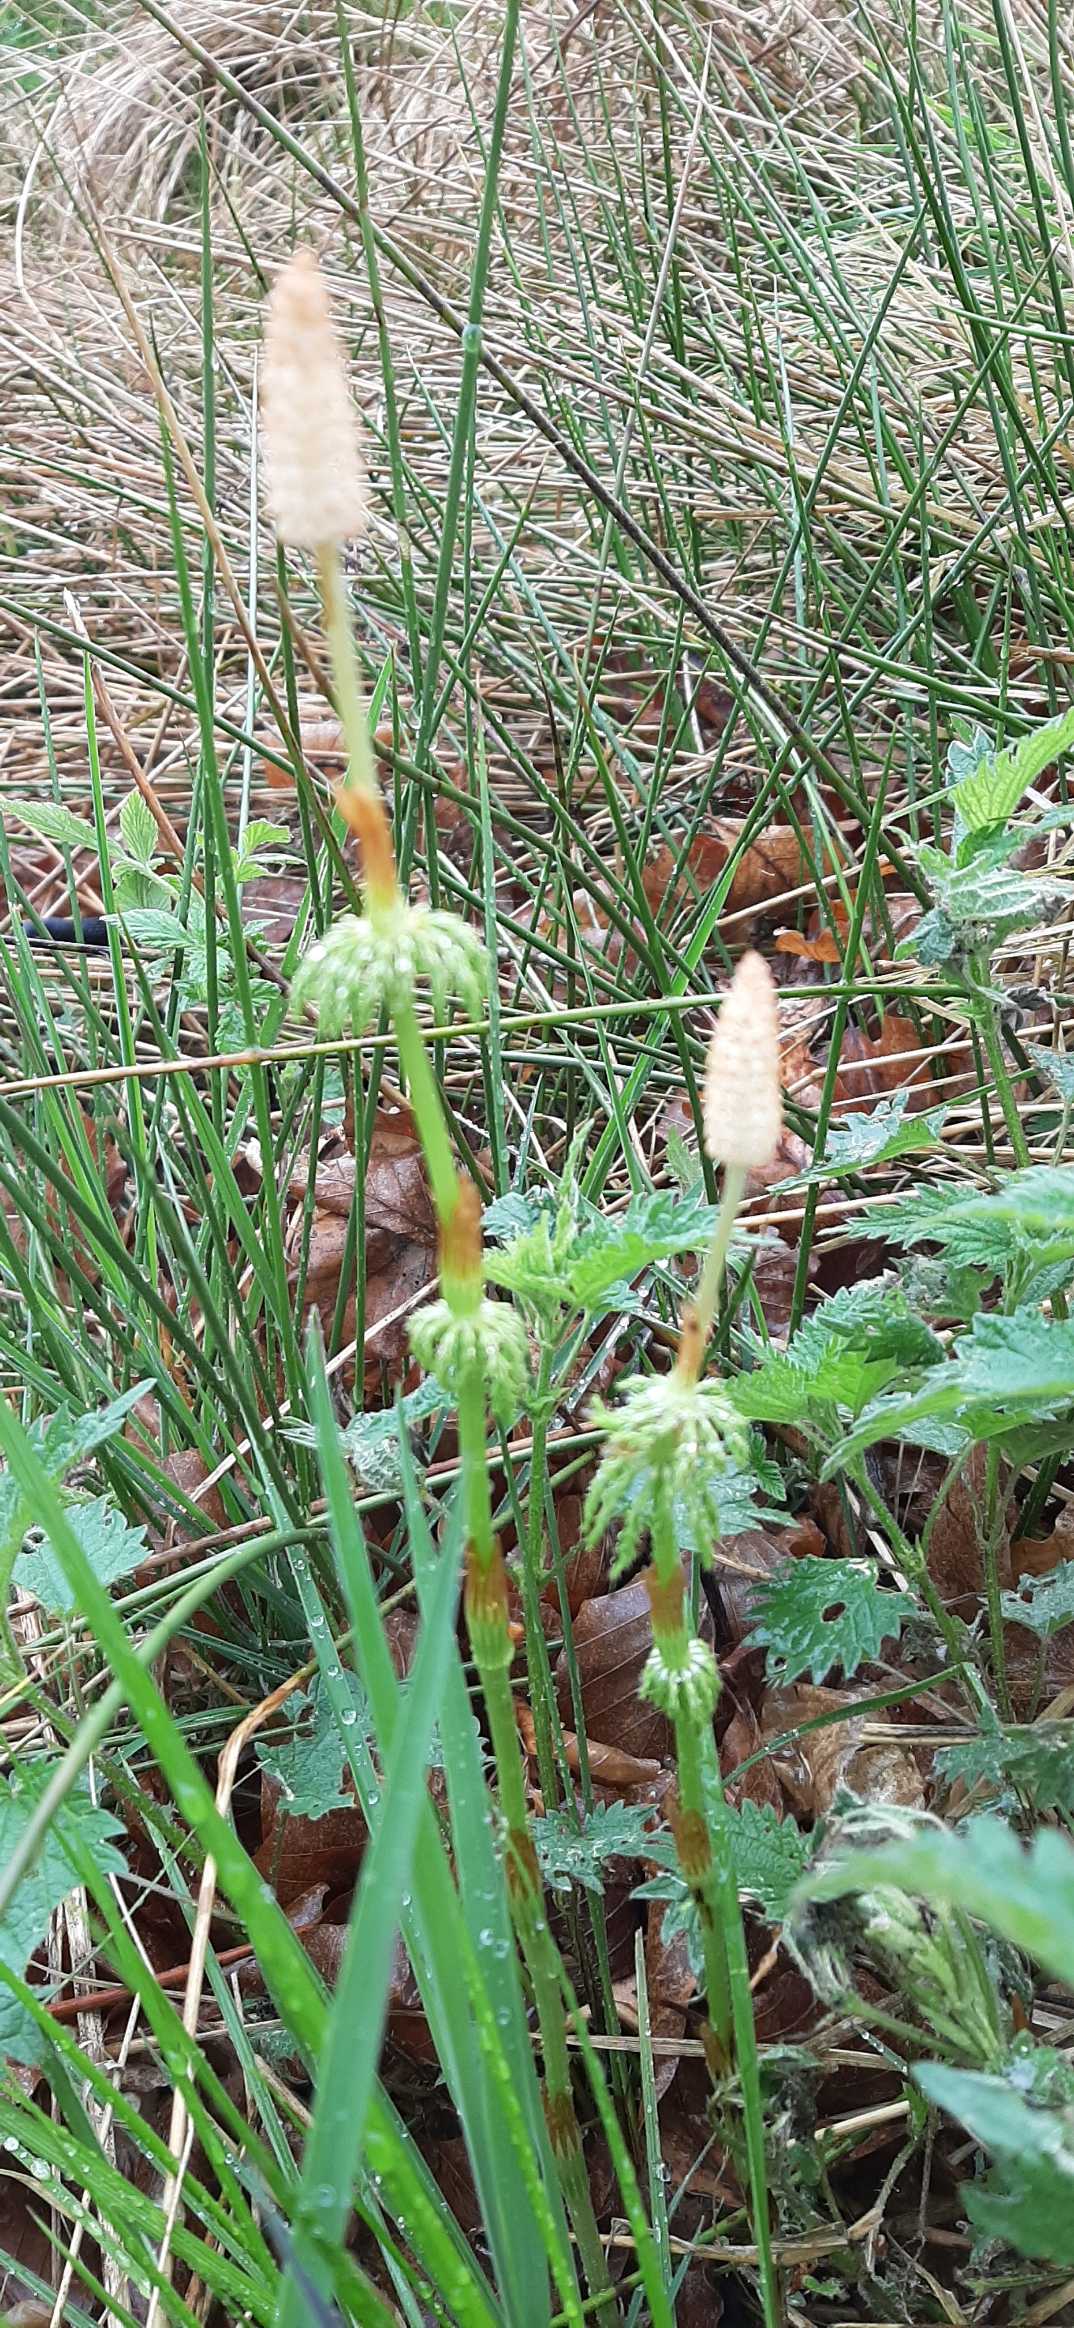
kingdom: Plantae
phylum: Tracheophyta
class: Polypodiopsida
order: Equisetales
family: Equisetaceae
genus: Equisetum
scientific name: Equisetum arvense
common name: Ager-padderok
